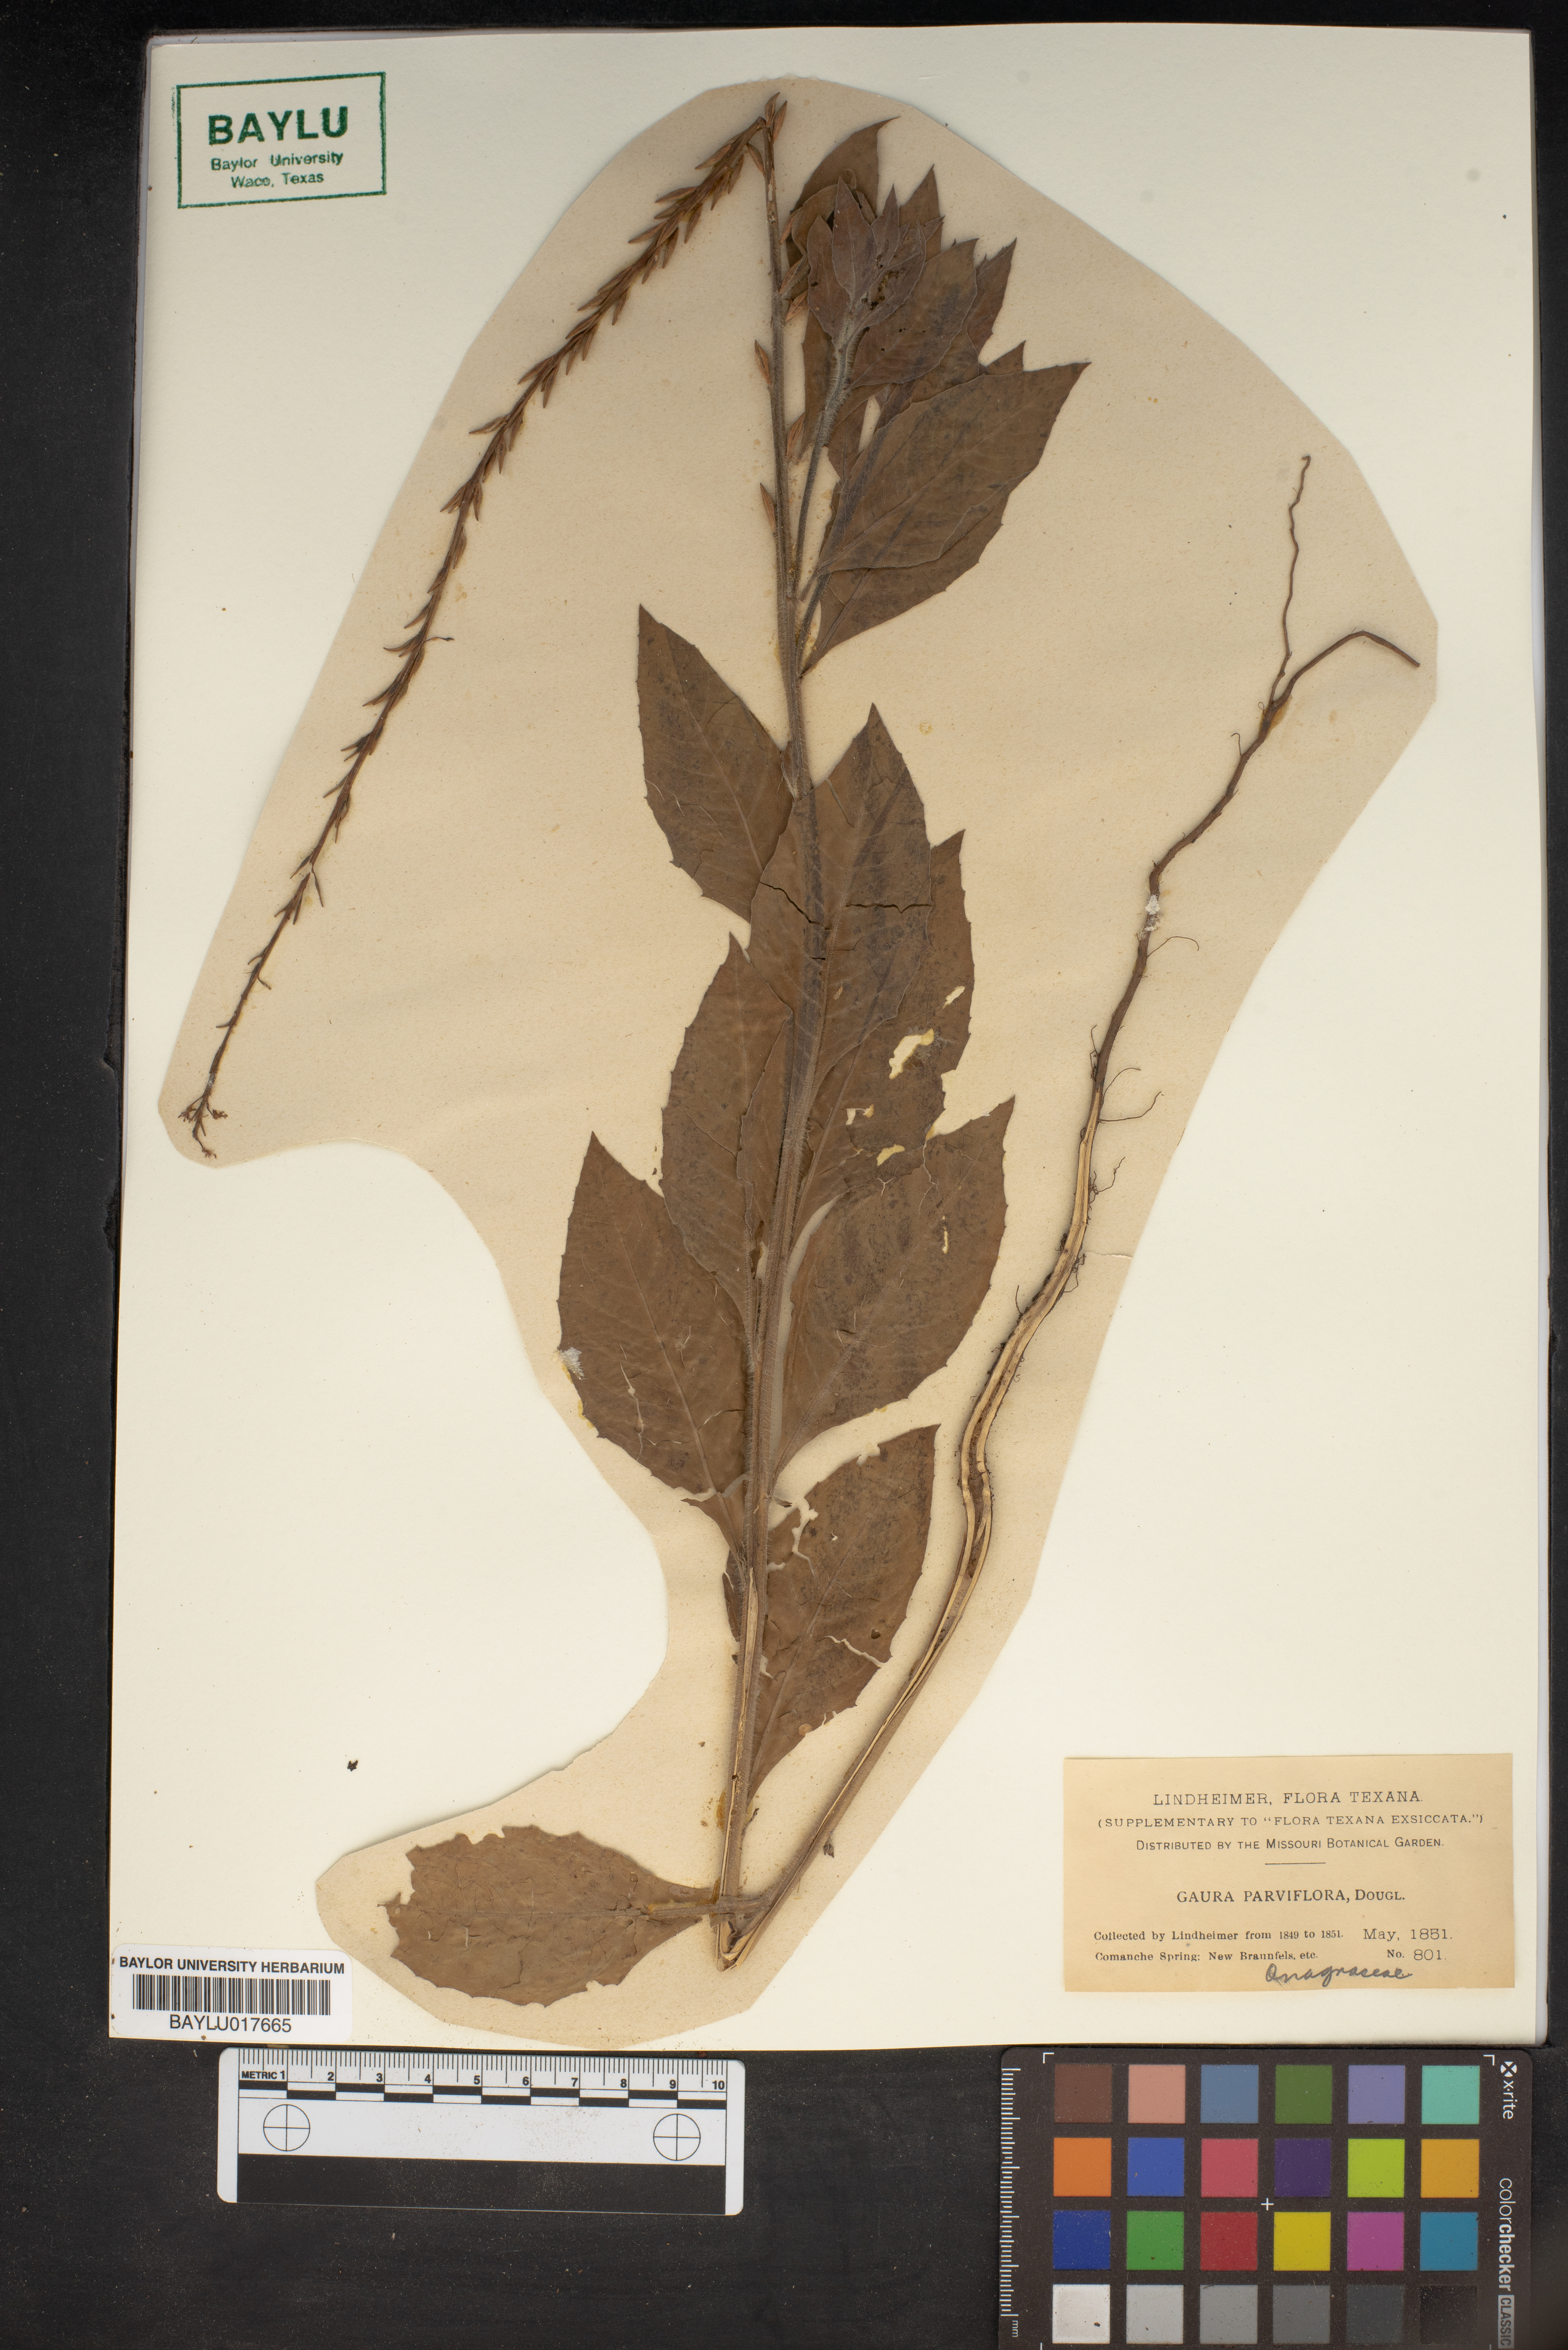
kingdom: Plantae
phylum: Tracheophyta
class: Magnoliopsida
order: Myrtales
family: Onagraceae
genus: Oenothera
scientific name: Oenothera curtiflora
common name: Velvetweed
